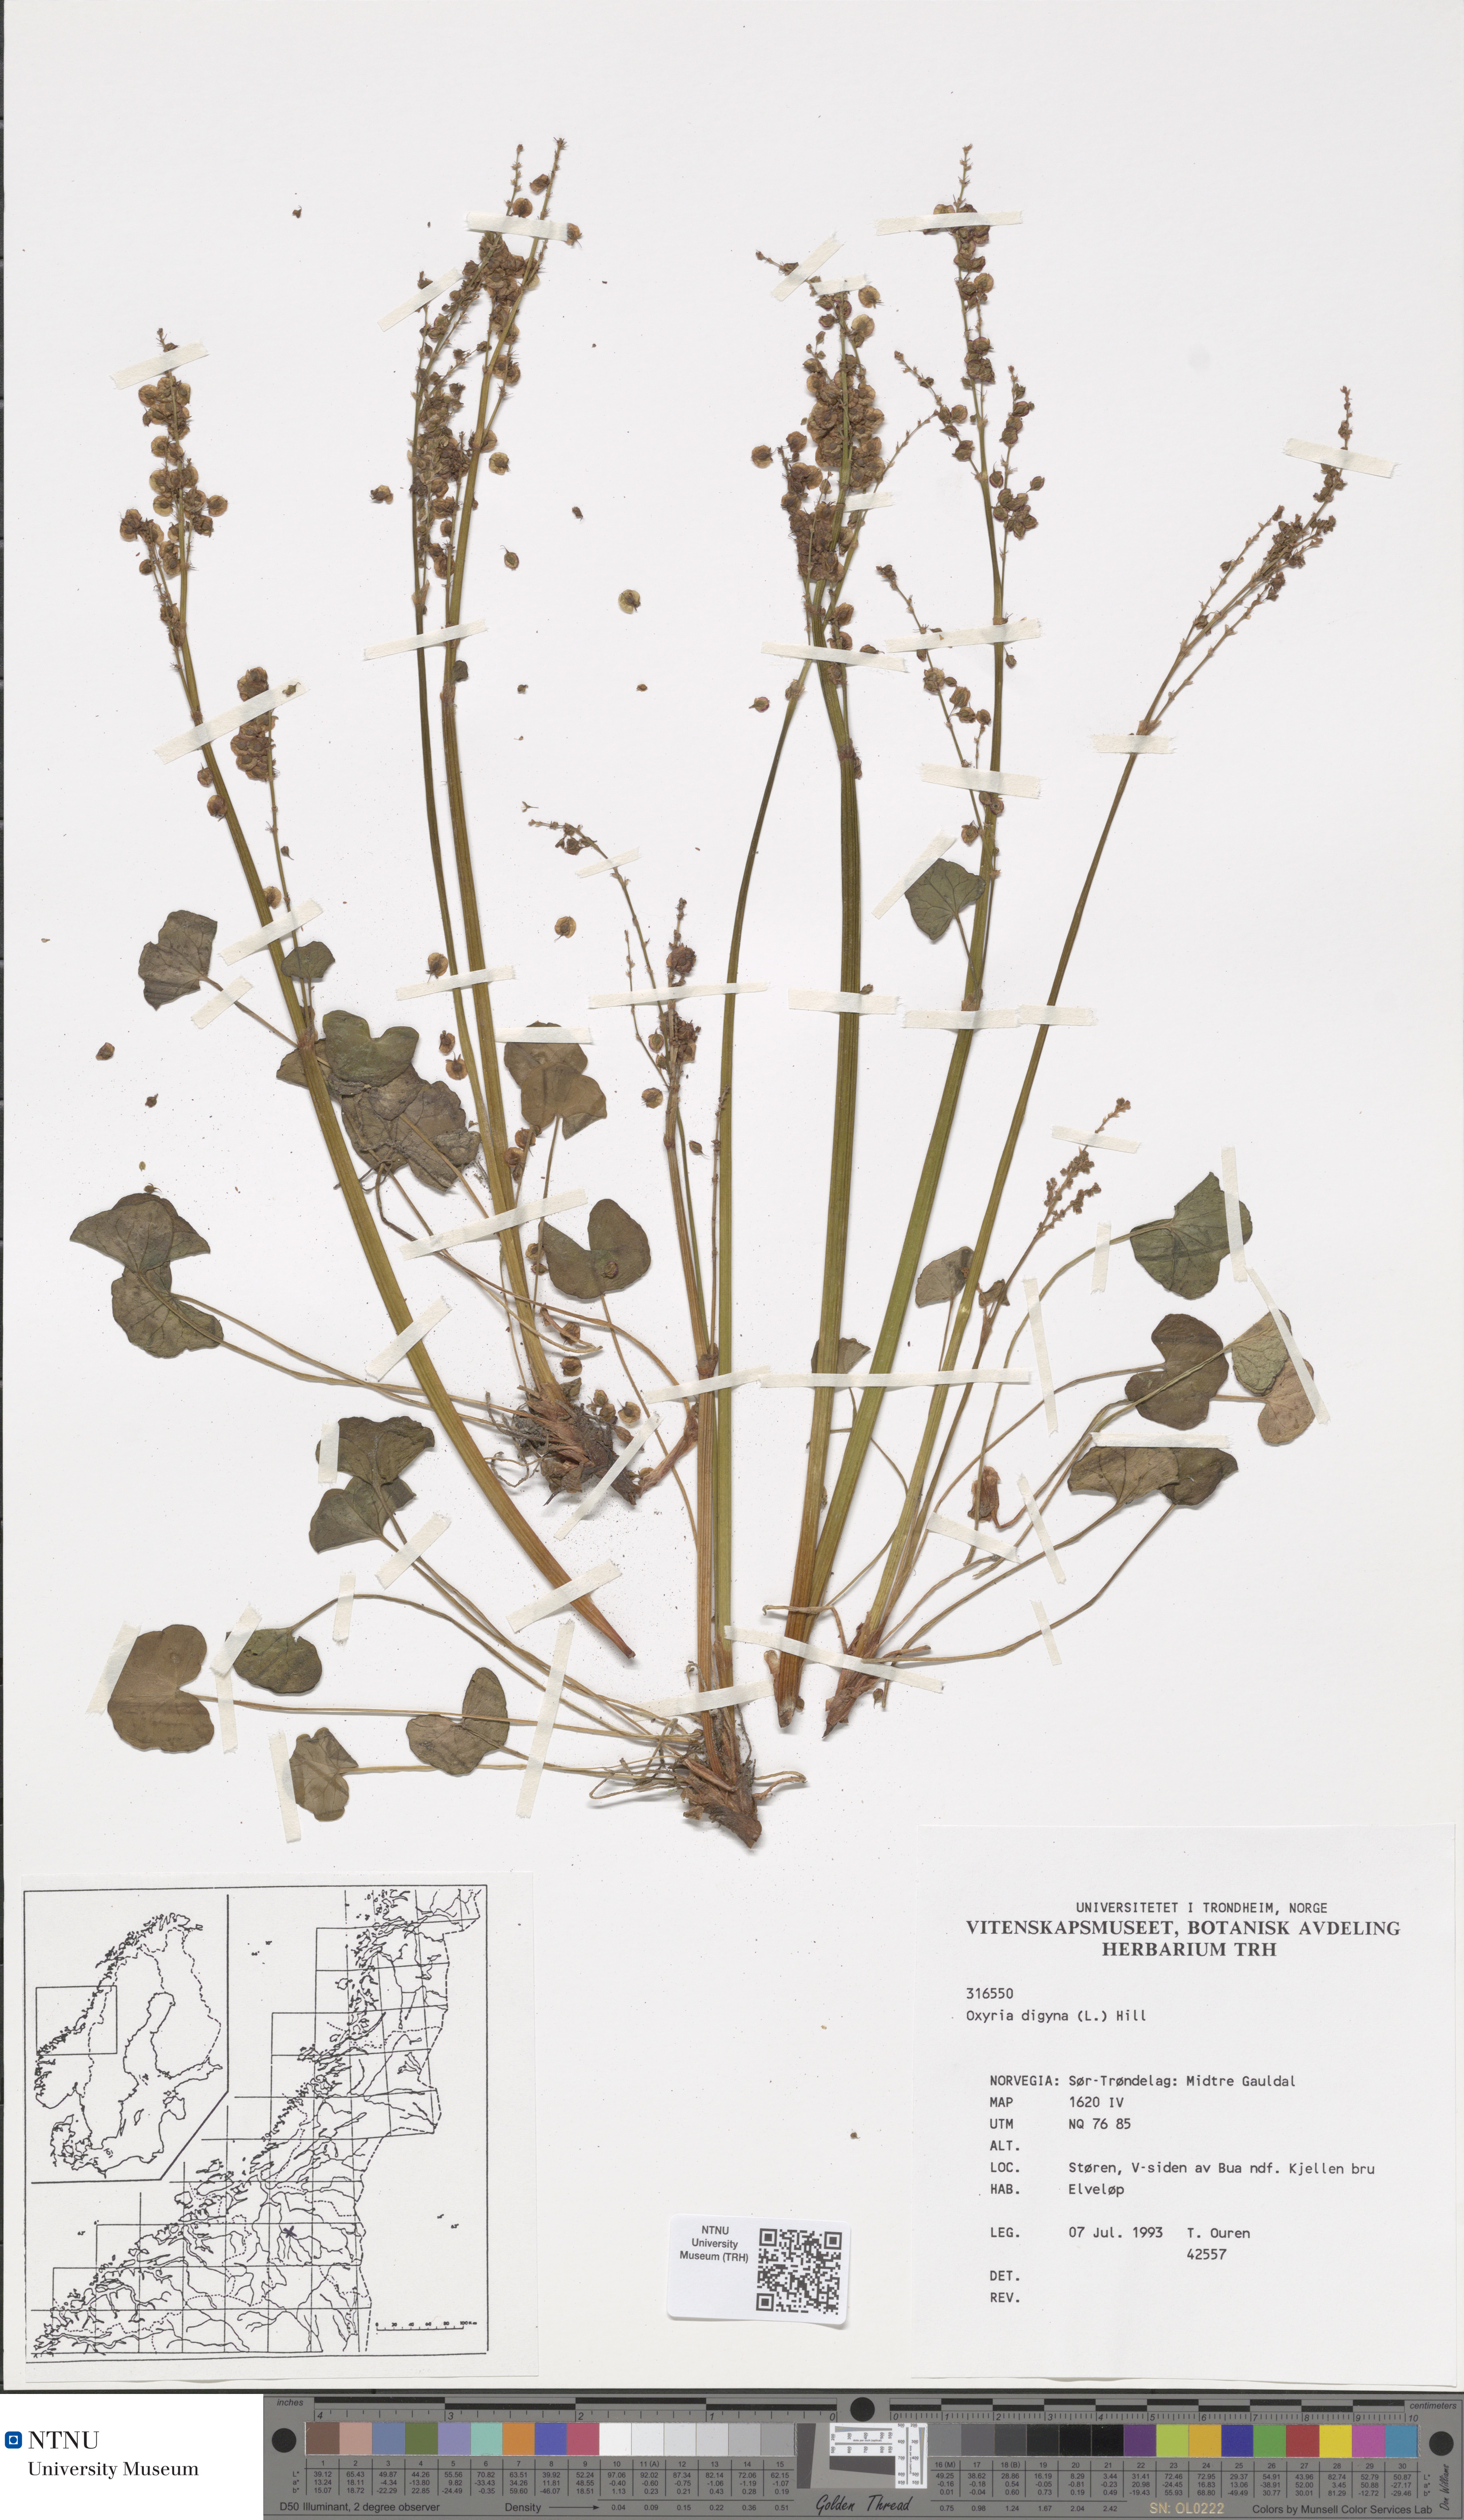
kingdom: Plantae
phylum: Tracheophyta
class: Magnoliopsida
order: Caryophyllales
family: Polygonaceae
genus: Oxyria
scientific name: Oxyria digyna
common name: Alpine mountain-sorrel
